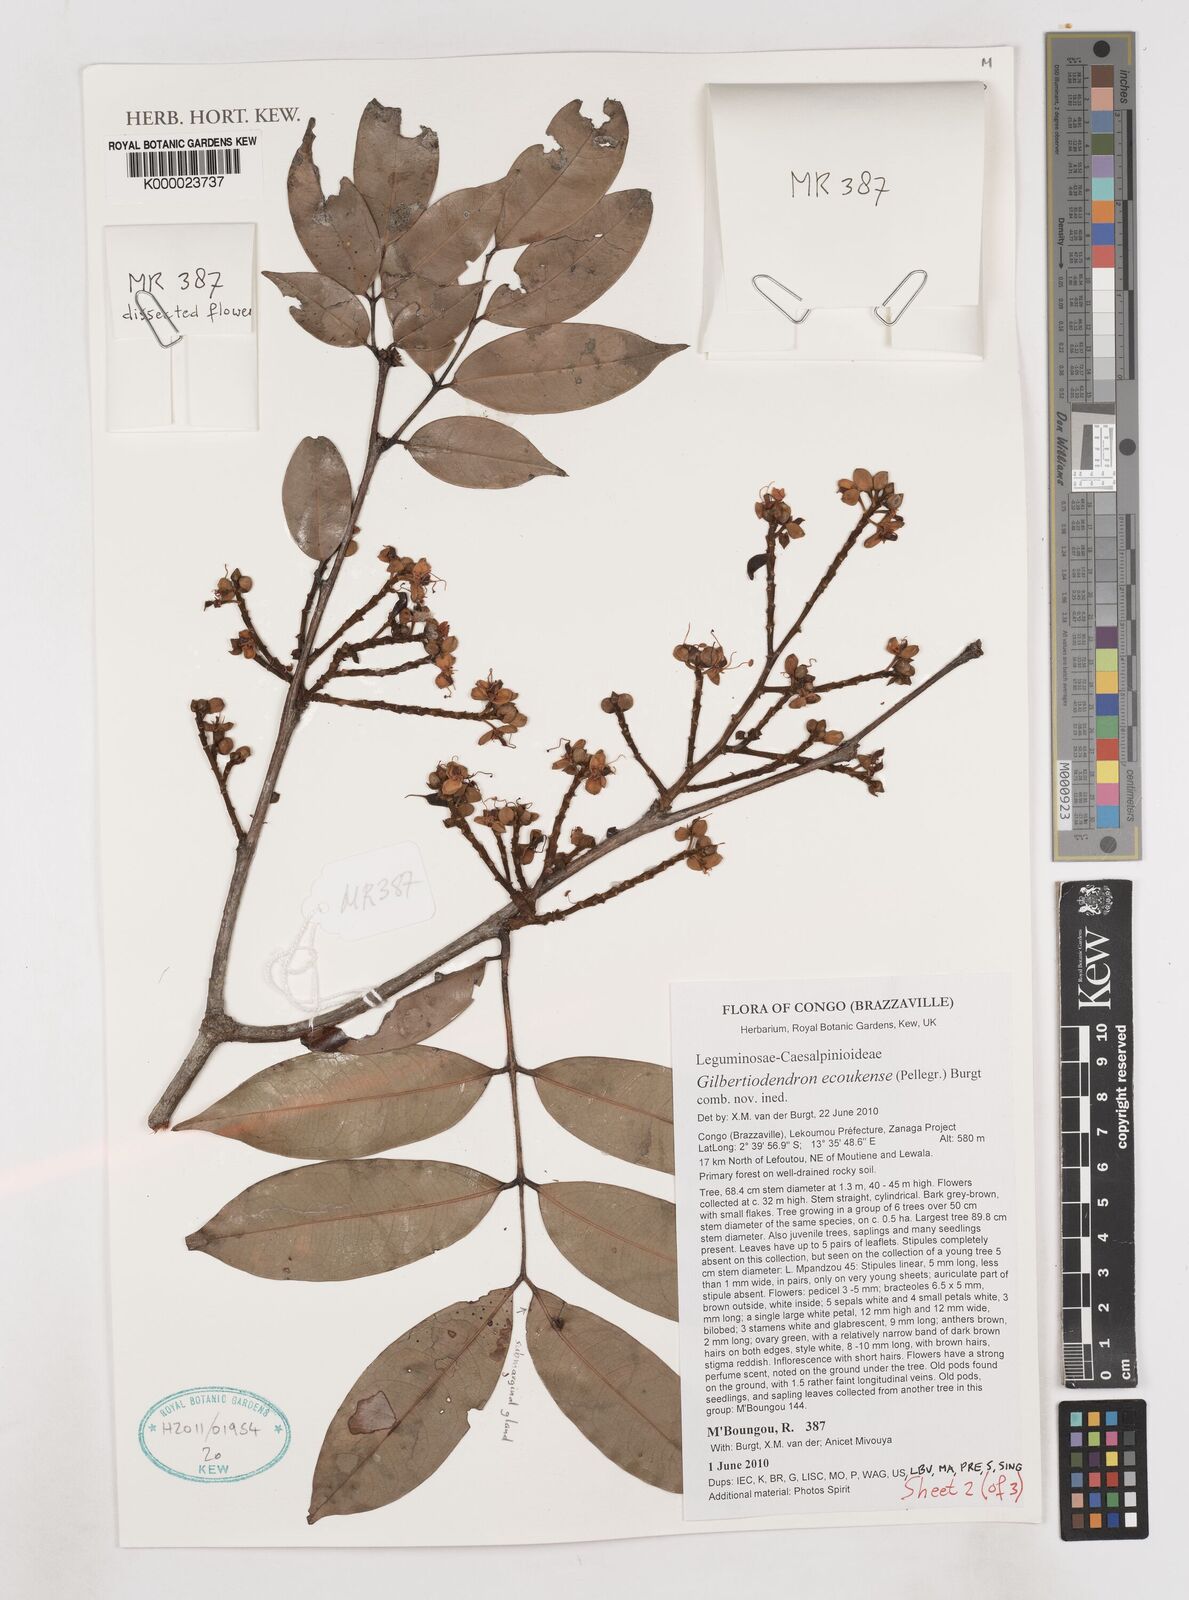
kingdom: Plantae
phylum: Tracheophyta
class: Magnoliopsida
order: Fabales
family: Fabaceae
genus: Gilbertiodendron
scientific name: Gilbertiodendron ecoukense
